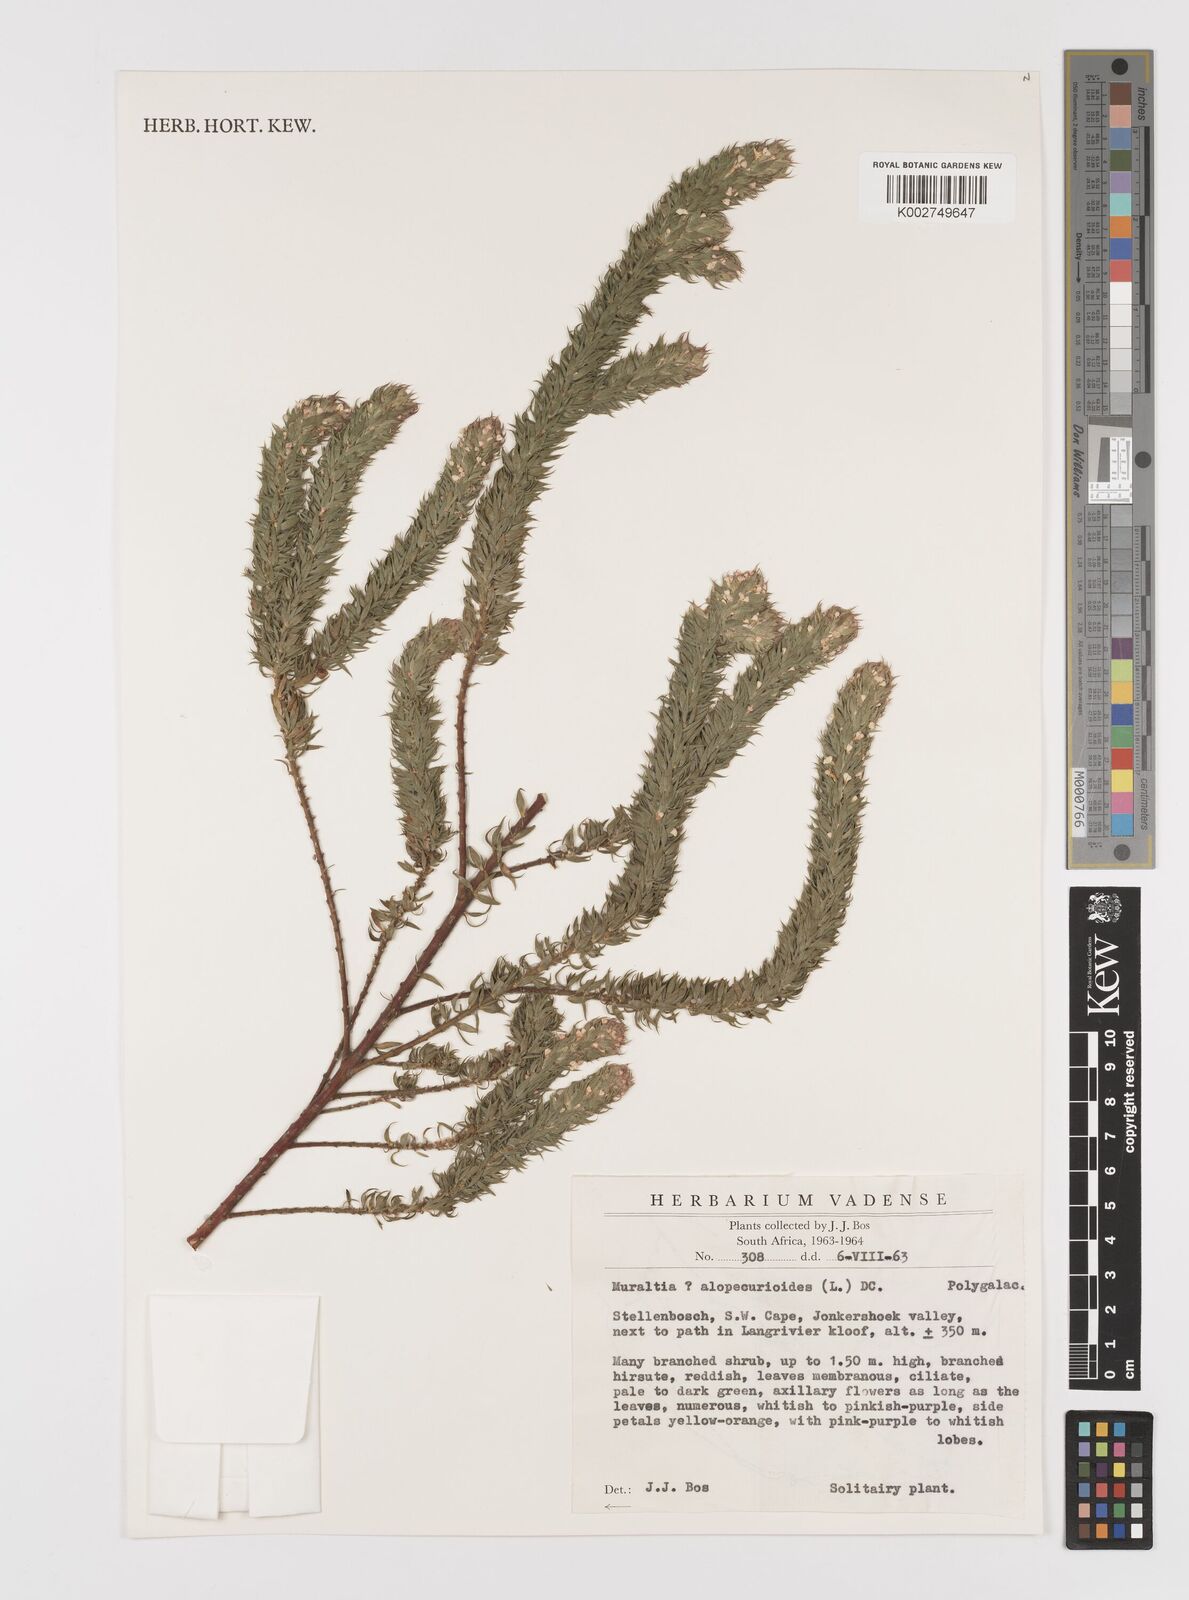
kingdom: Plantae
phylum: Tracheophyta
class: Magnoliopsida
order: Fabales
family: Polygalaceae
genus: Muraltia
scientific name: Muraltia alopecuroides
